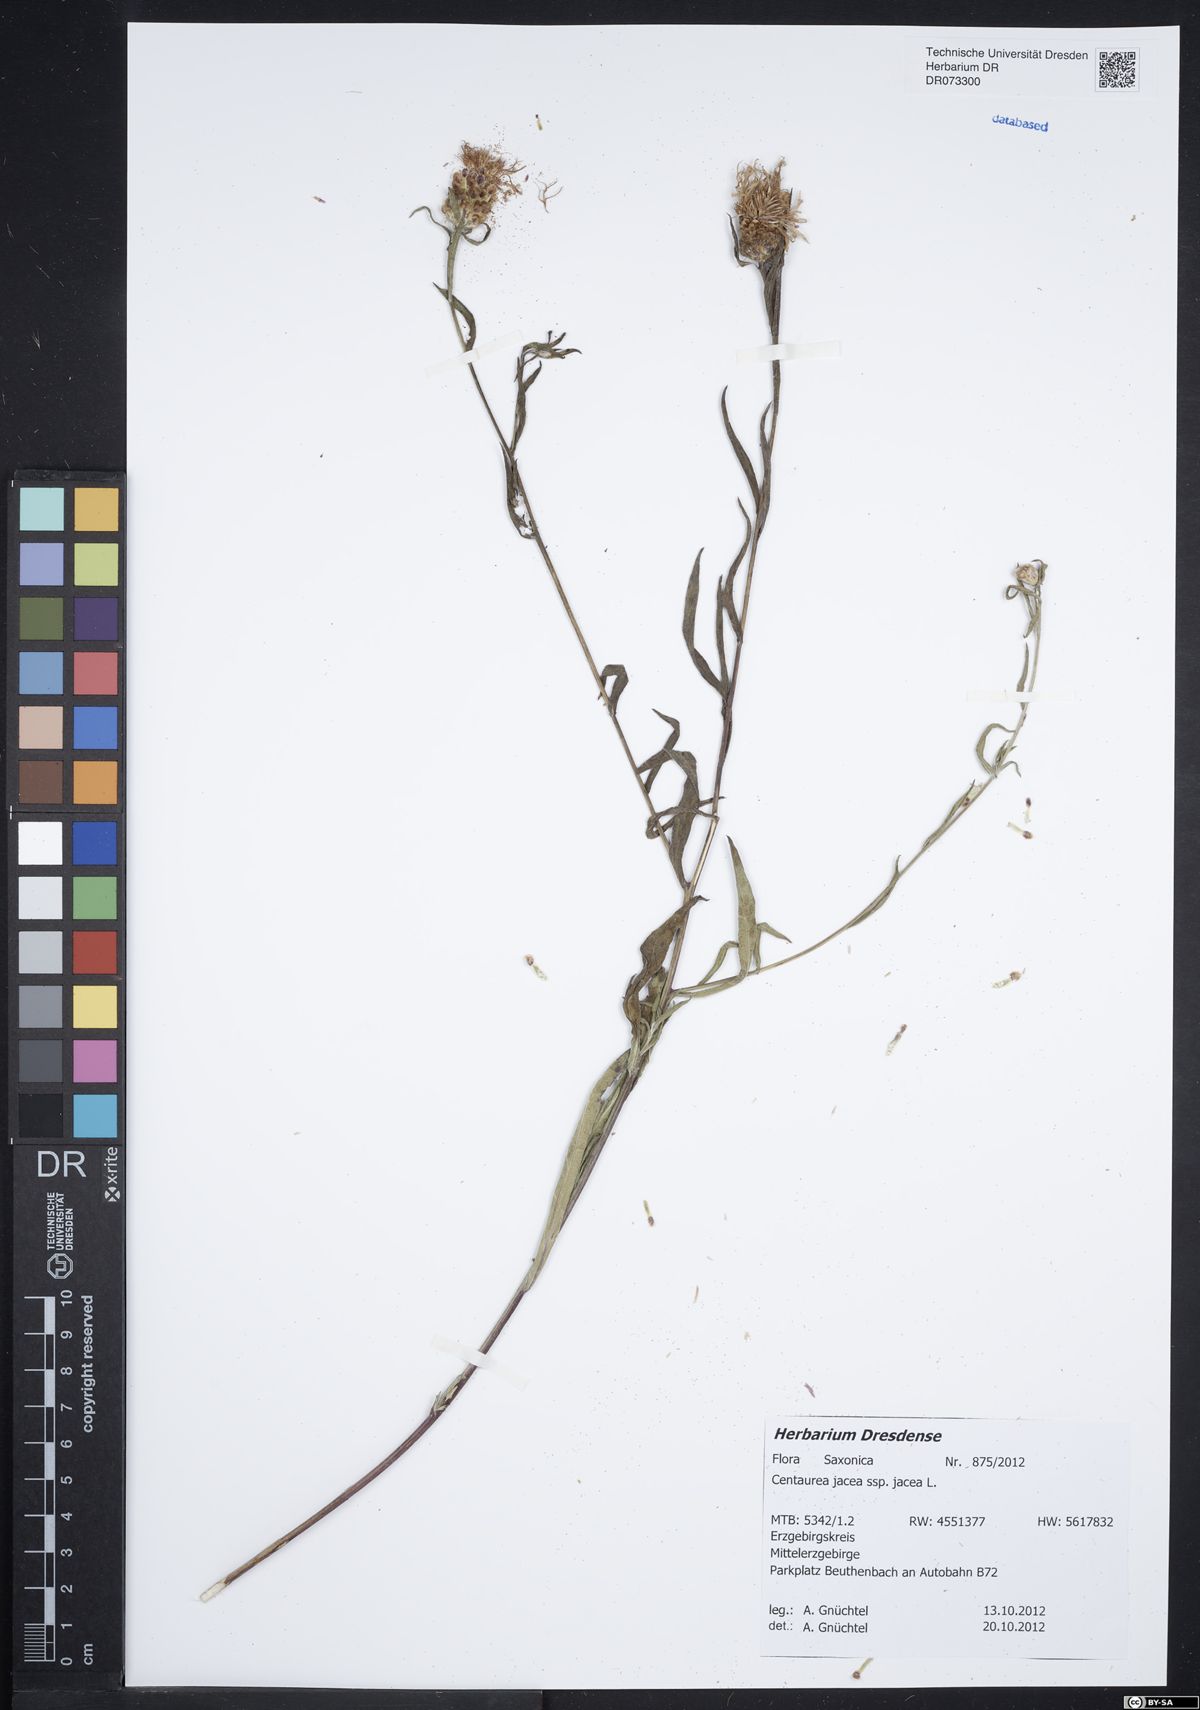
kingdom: Plantae
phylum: Tracheophyta
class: Magnoliopsida
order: Asterales
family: Asteraceae
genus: Centaurea
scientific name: Centaurea jacea
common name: Brown knapweed
